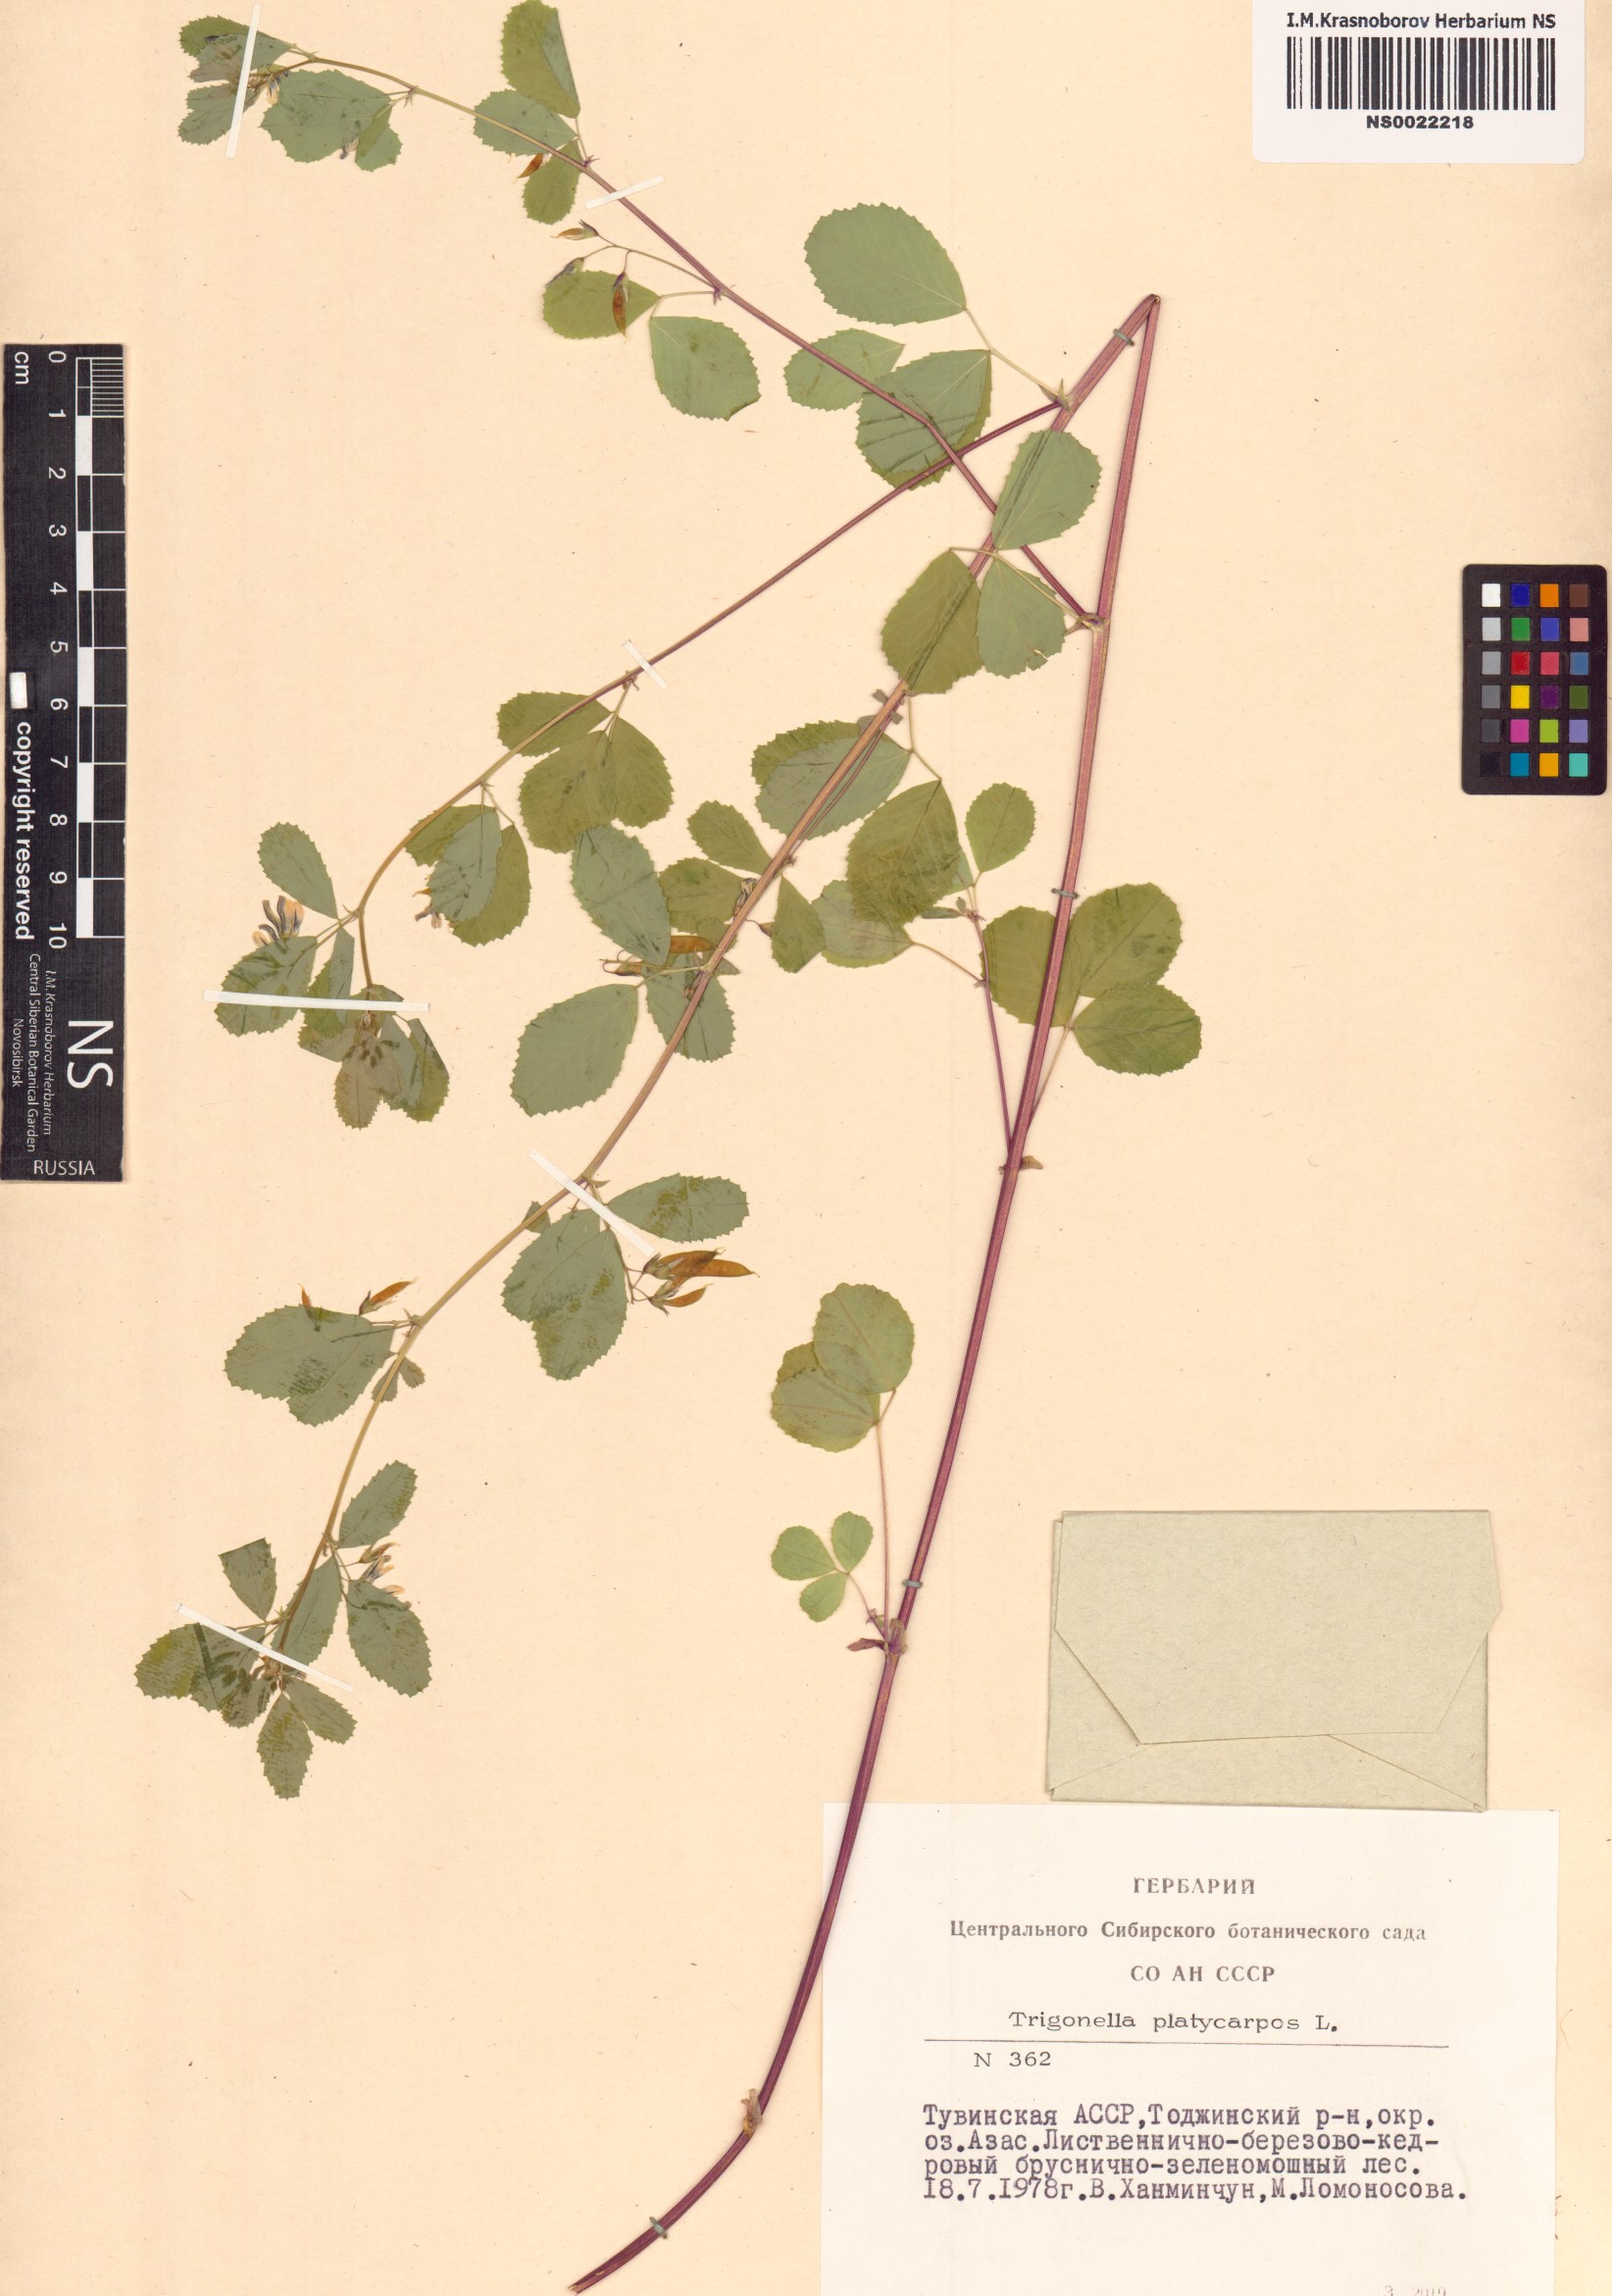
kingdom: Plantae
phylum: Tracheophyta
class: Magnoliopsida
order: Fabales
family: Fabaceae
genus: Medicago
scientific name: Medicago platycarpos
